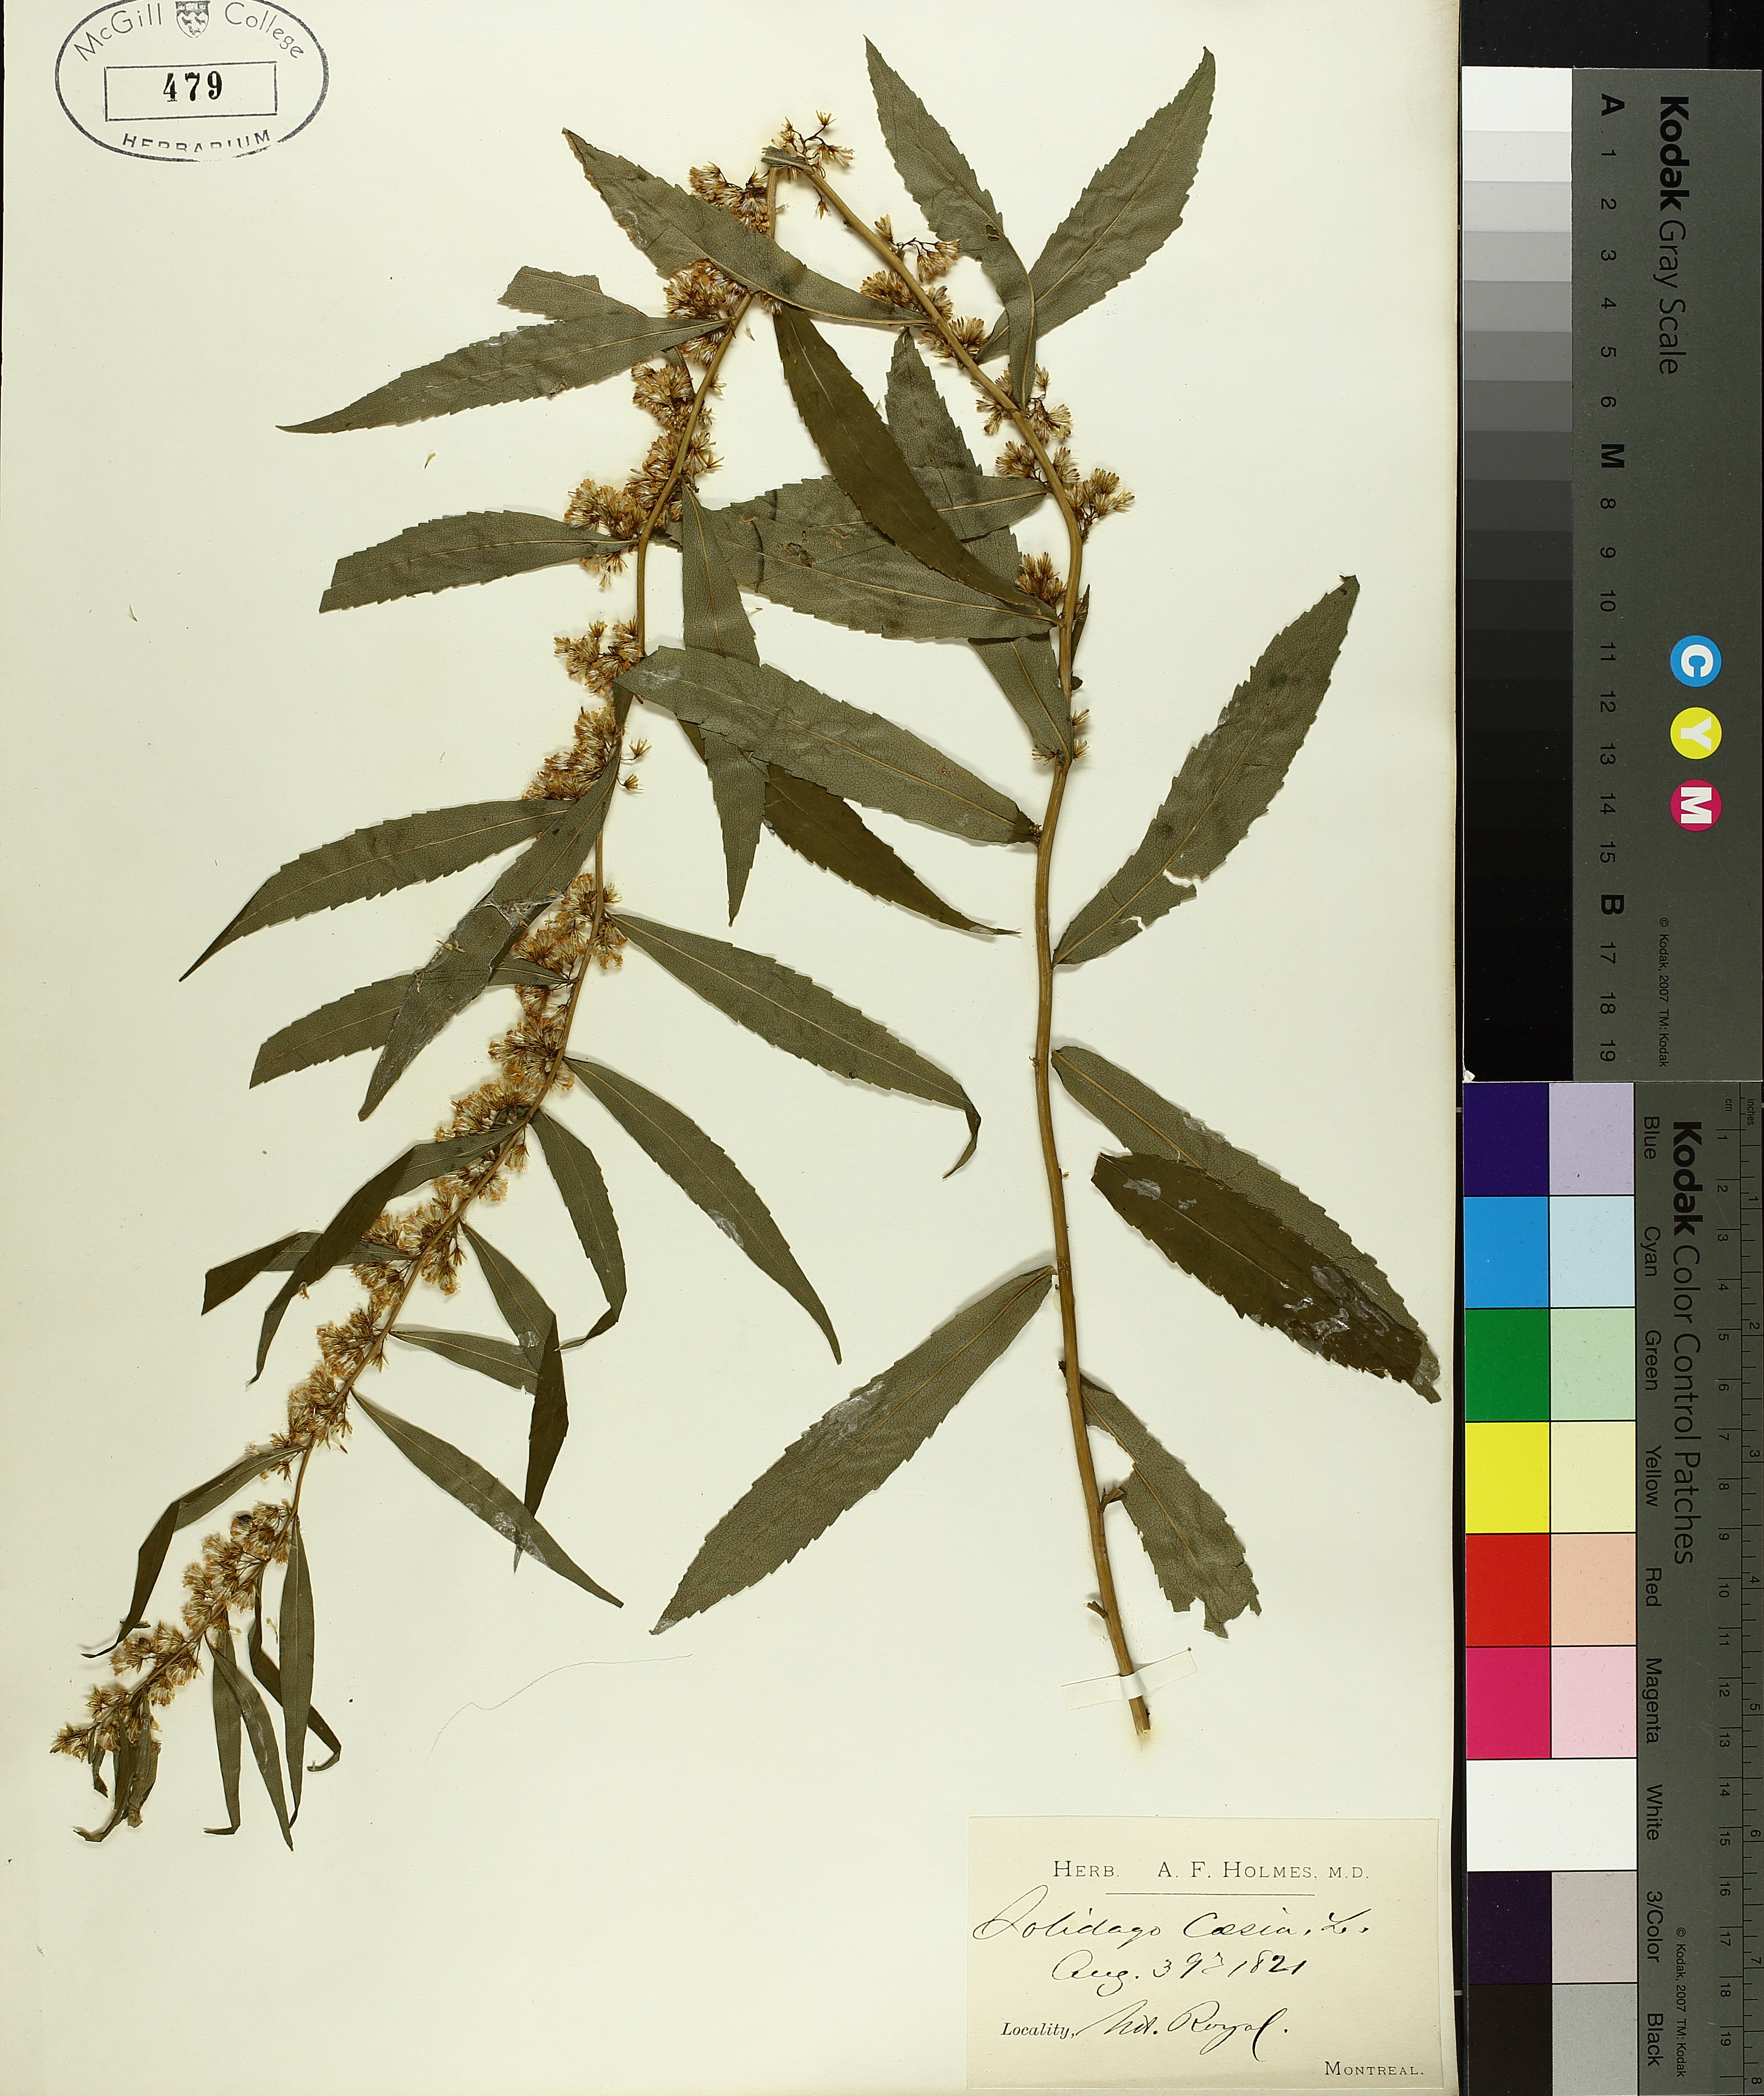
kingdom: Plantae
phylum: Tracheophyta
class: Magnoliopsida
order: Asterales
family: Asteraceae
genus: Solidago
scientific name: Solidago caesia
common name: Woodland goldenrod
